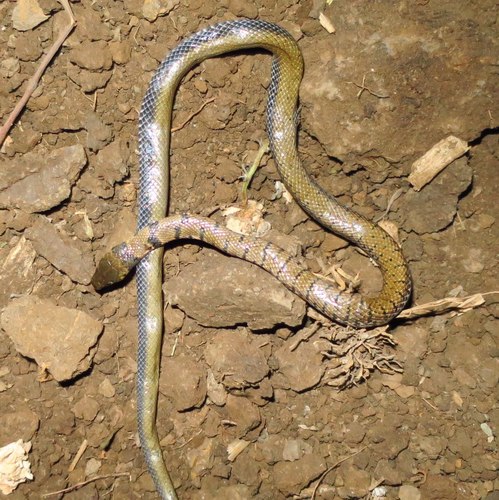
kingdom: Animalia
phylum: Chordata
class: Squamata
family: Colubridae
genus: Meizodon
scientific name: Meizodon semiornatus
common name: Semiornate smooth snake
